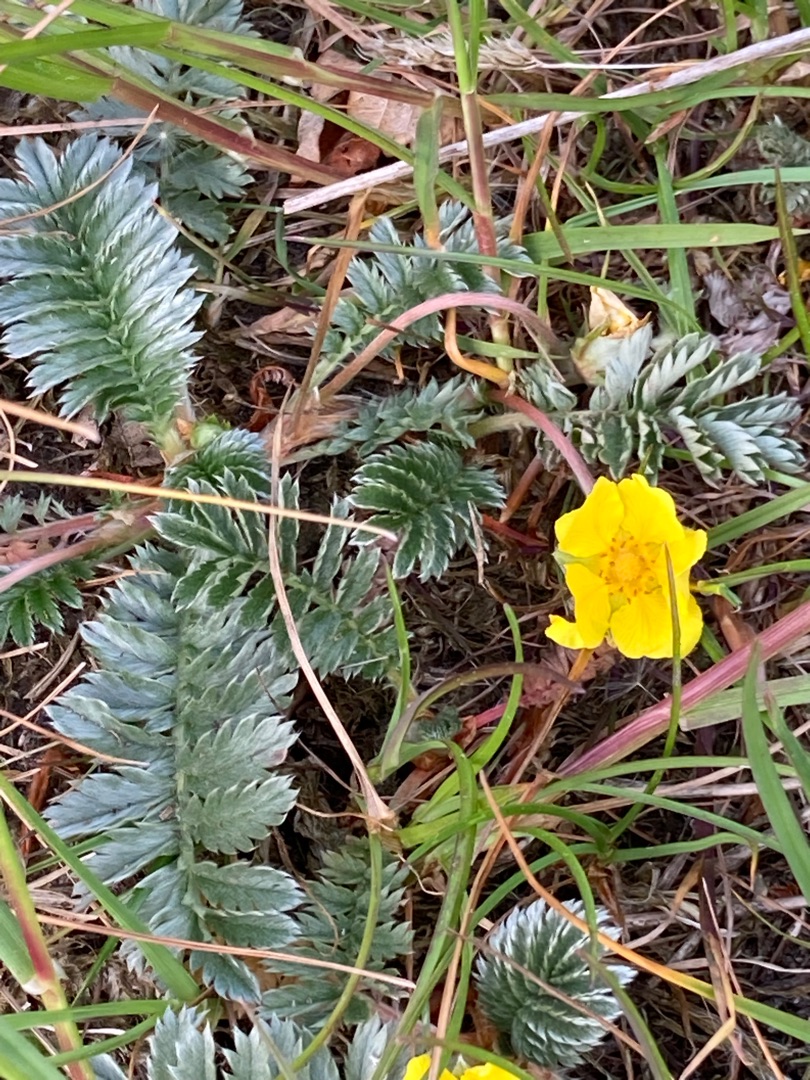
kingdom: Plantae
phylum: Tracheophyta
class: Magnoliopsida
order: Rosales
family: Rosaceae
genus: Argentina
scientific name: Argentina anserina
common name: Gåsepotentil
